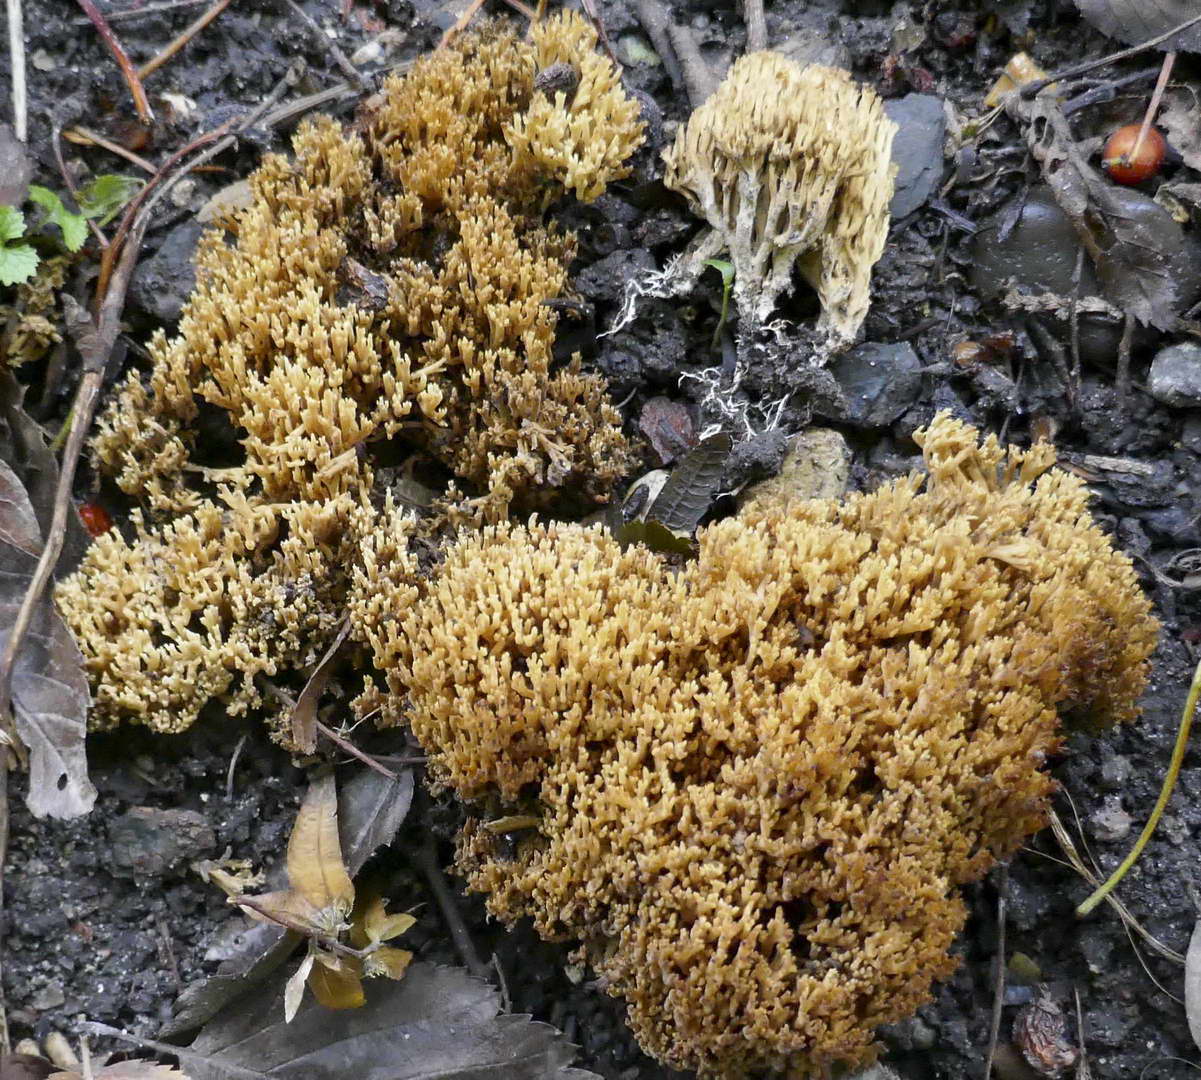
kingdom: Fungi
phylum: Basidiomycota
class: Agaricomycetes
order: Gomphales
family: Gomphaceae
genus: Phaeoclavulina
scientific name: Phaeoclavulina decurrens
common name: krat-koralsvamp
